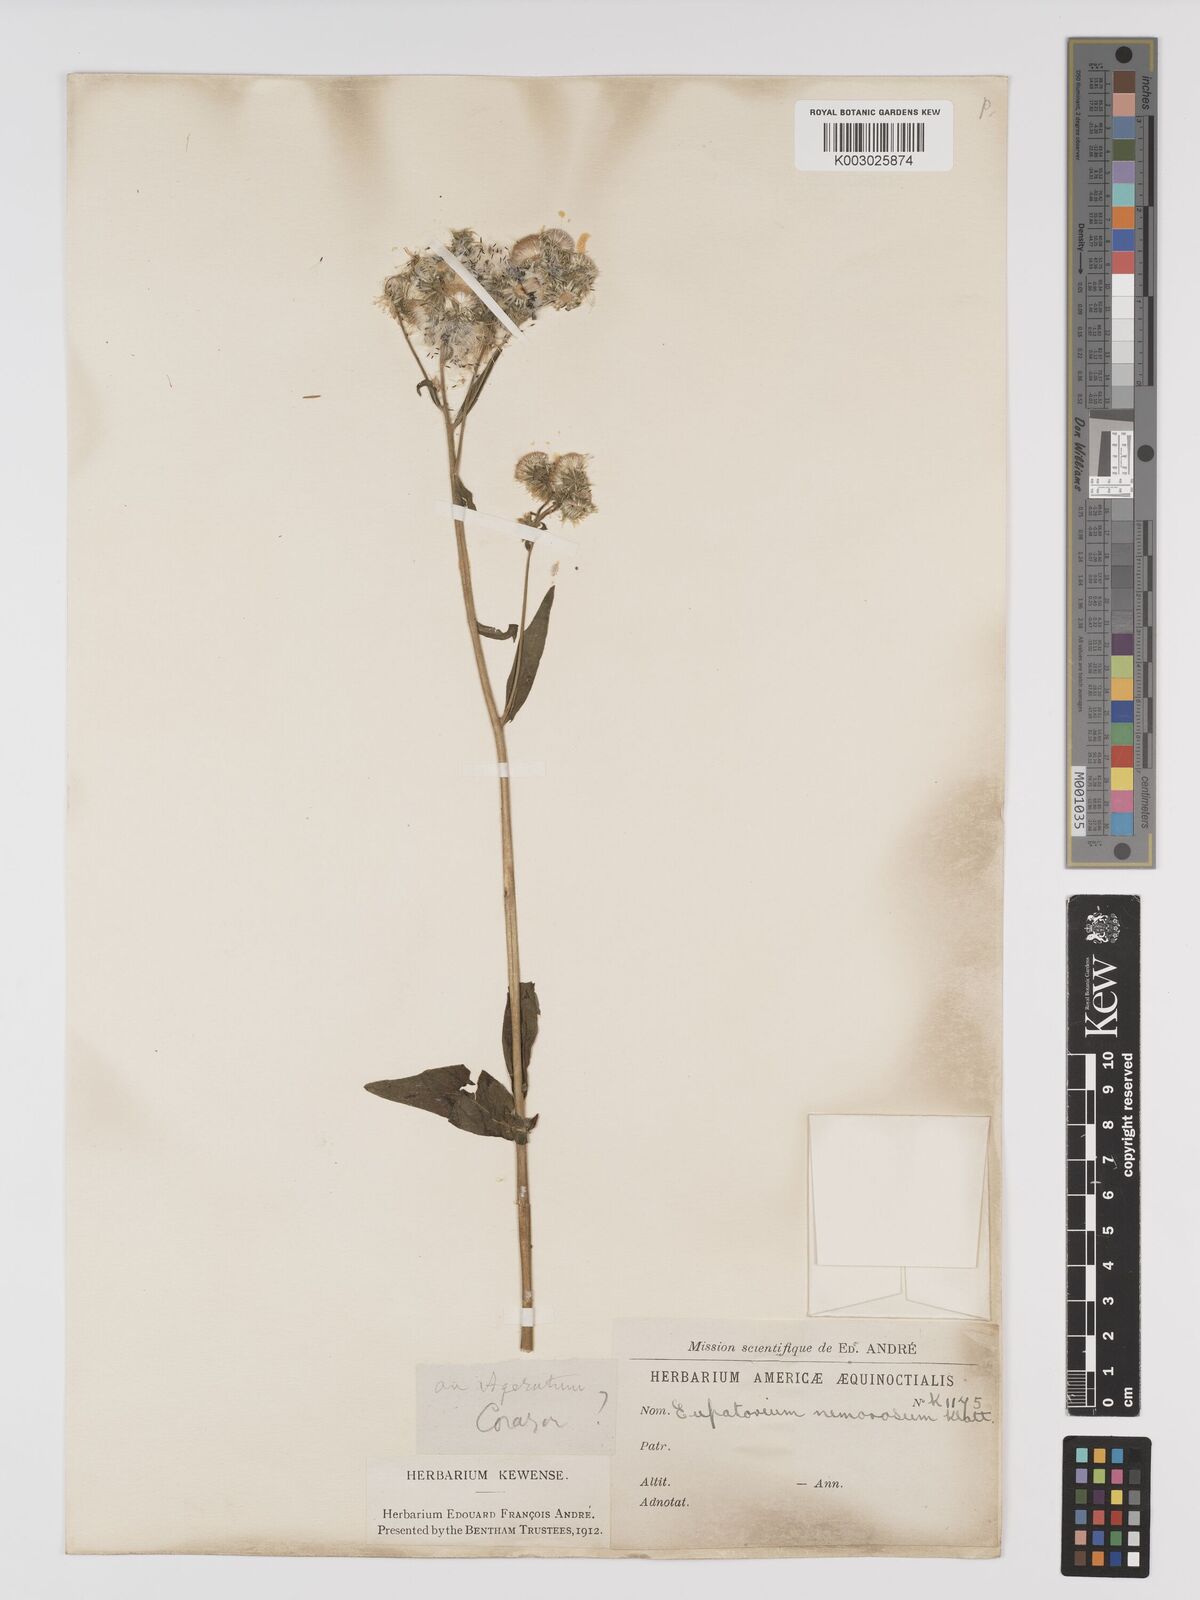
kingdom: Plantae
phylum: Tracheophyta
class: Magnoliopsida
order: Asterales
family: Asteraceae
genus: Polyanthina
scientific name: Polyanthina nemorosa
